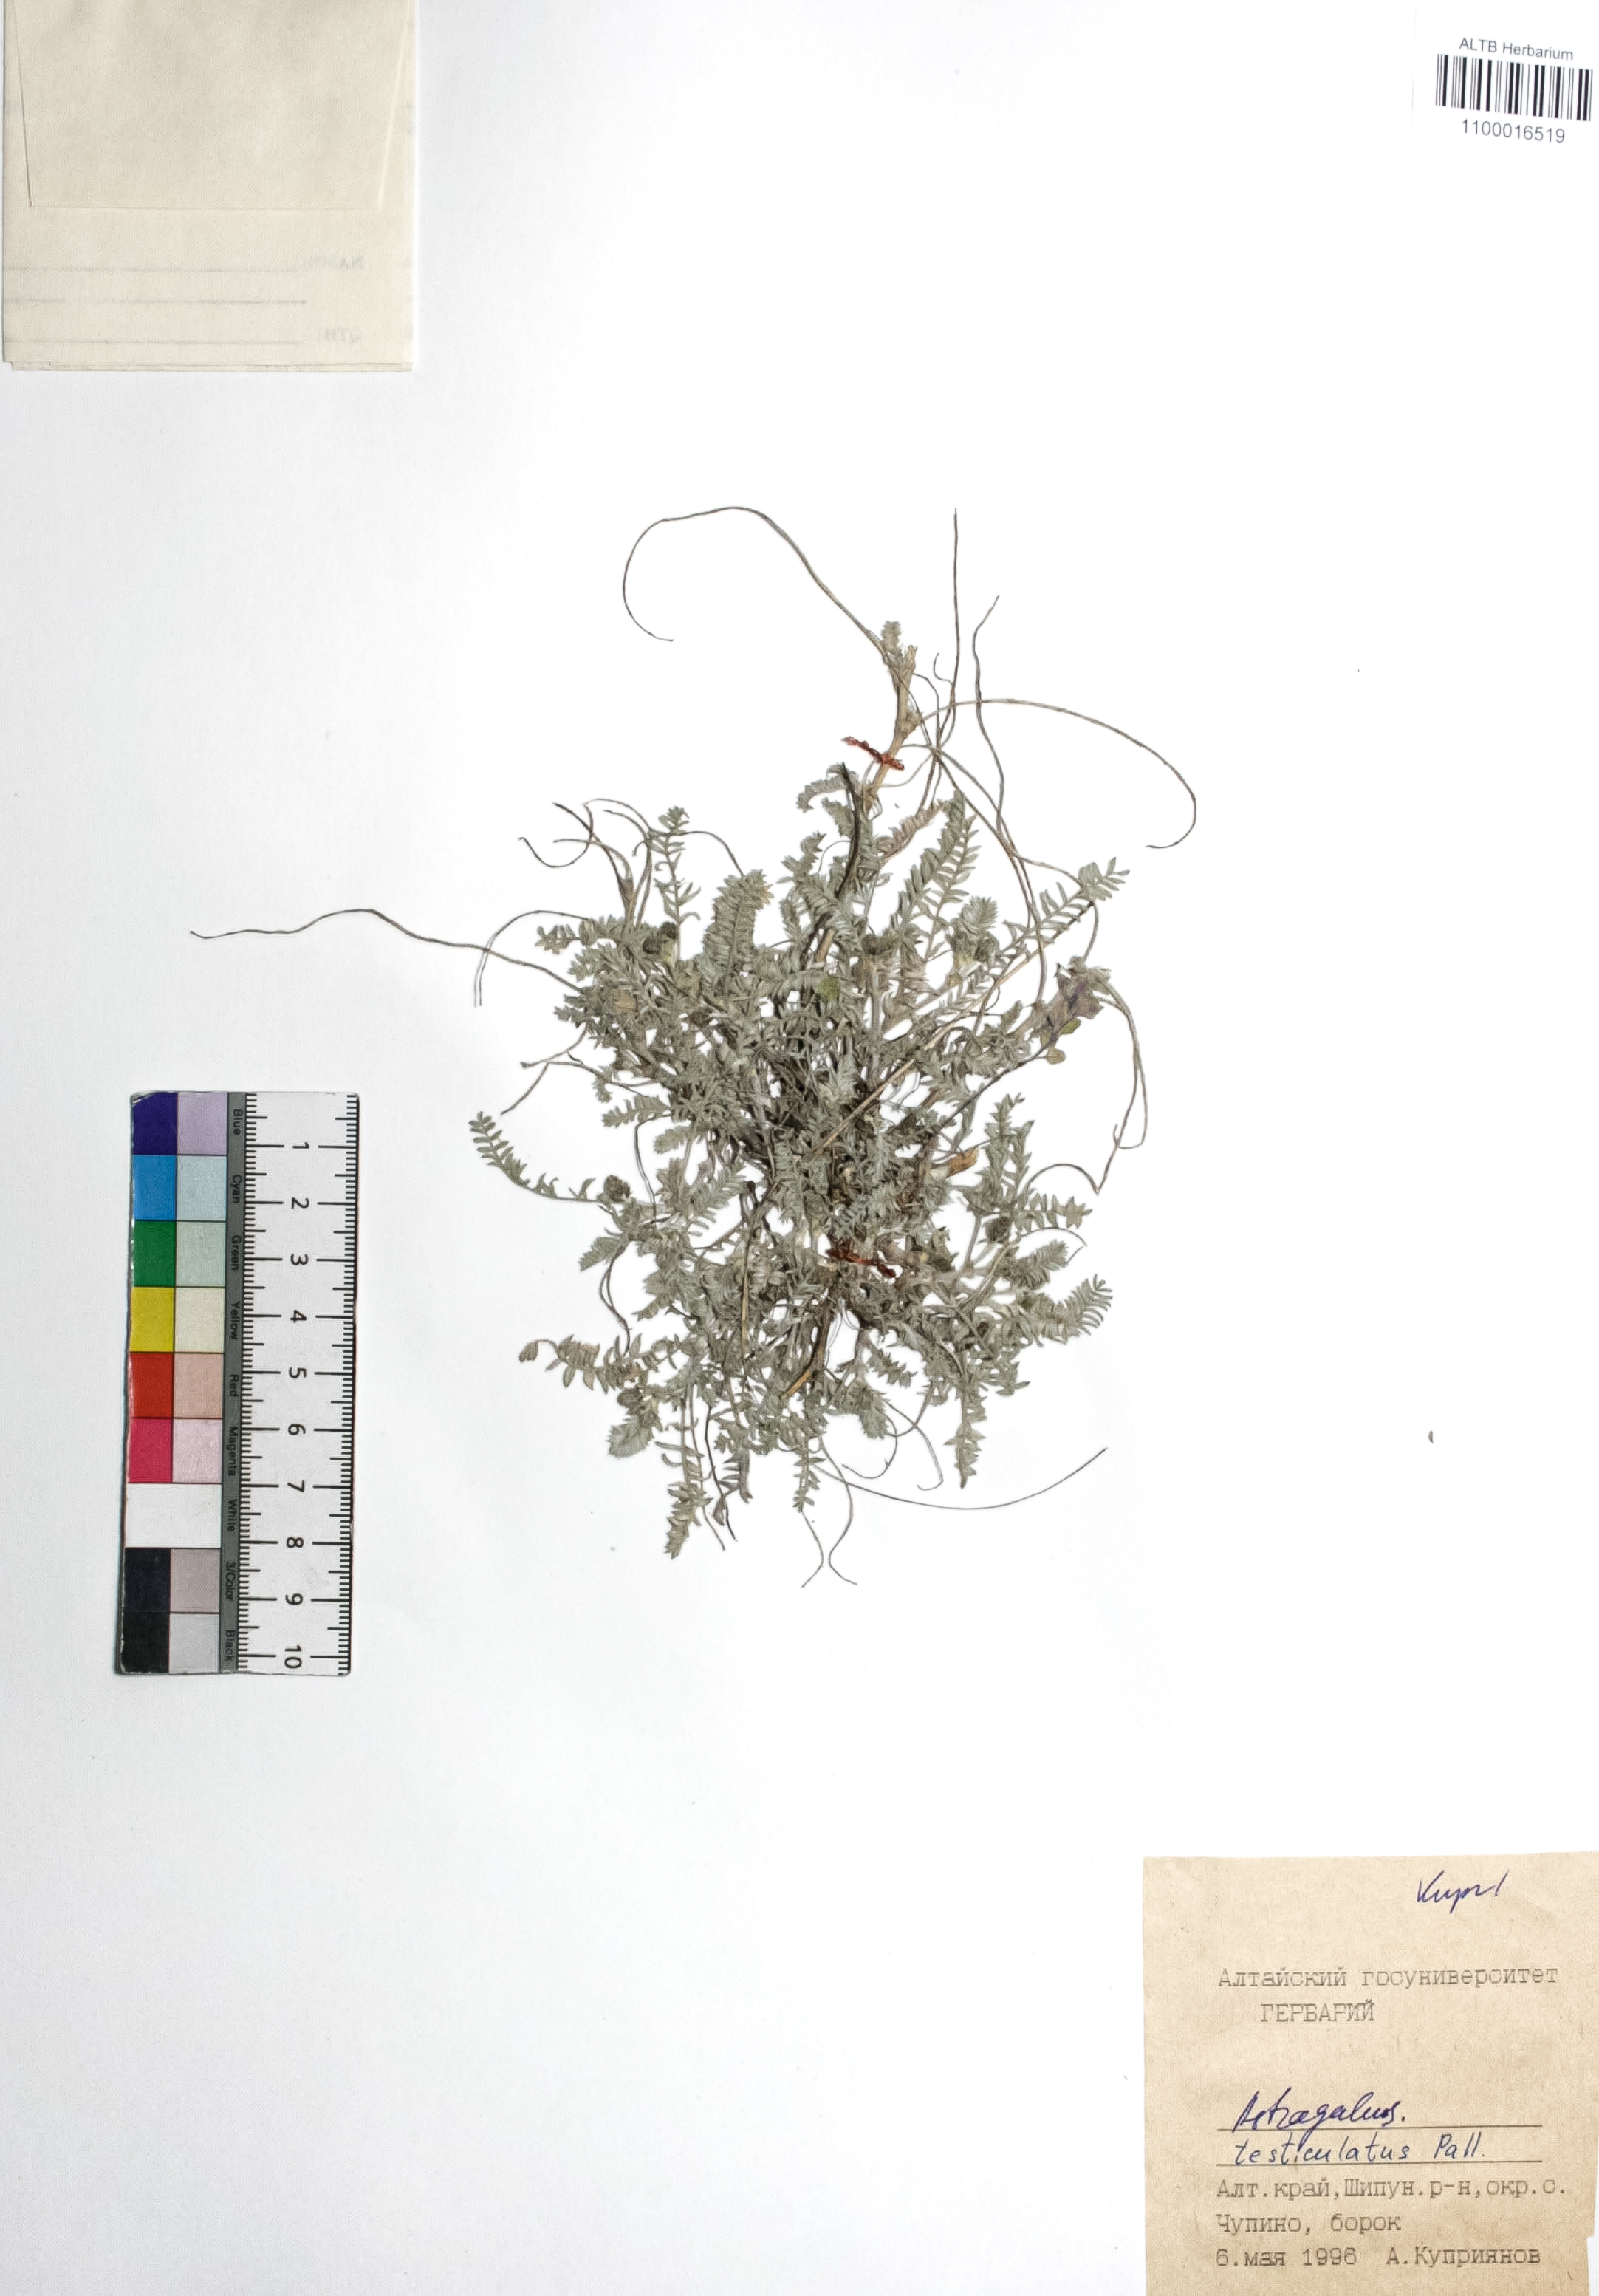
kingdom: Plantae
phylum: Tracheophyta
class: Magnoliopsida
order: Fabales
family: Fabaceae
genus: Astragalus
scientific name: Astragalus testiculatus
